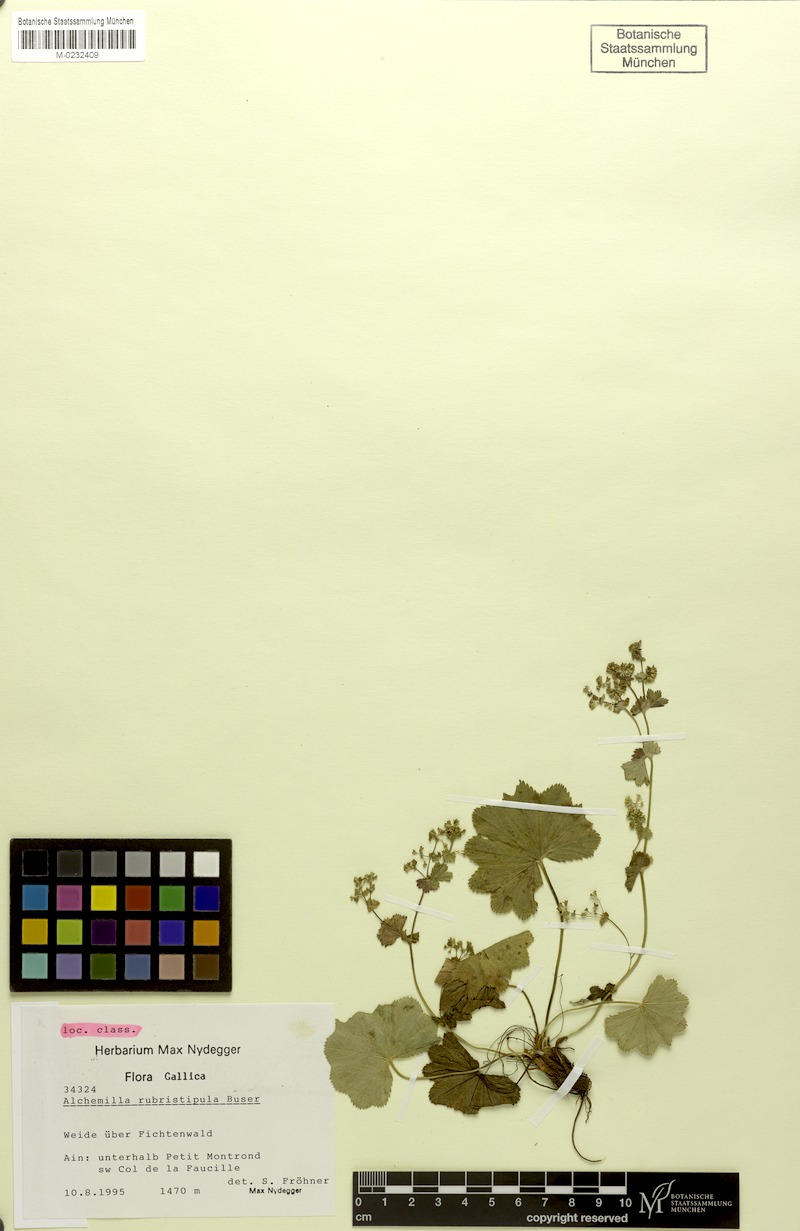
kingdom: Plantae
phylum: Tracheophyta
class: Magnoliopsida
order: Rosales
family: Rosaceae
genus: Alchemilla
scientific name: Alchemilla rubristipula
